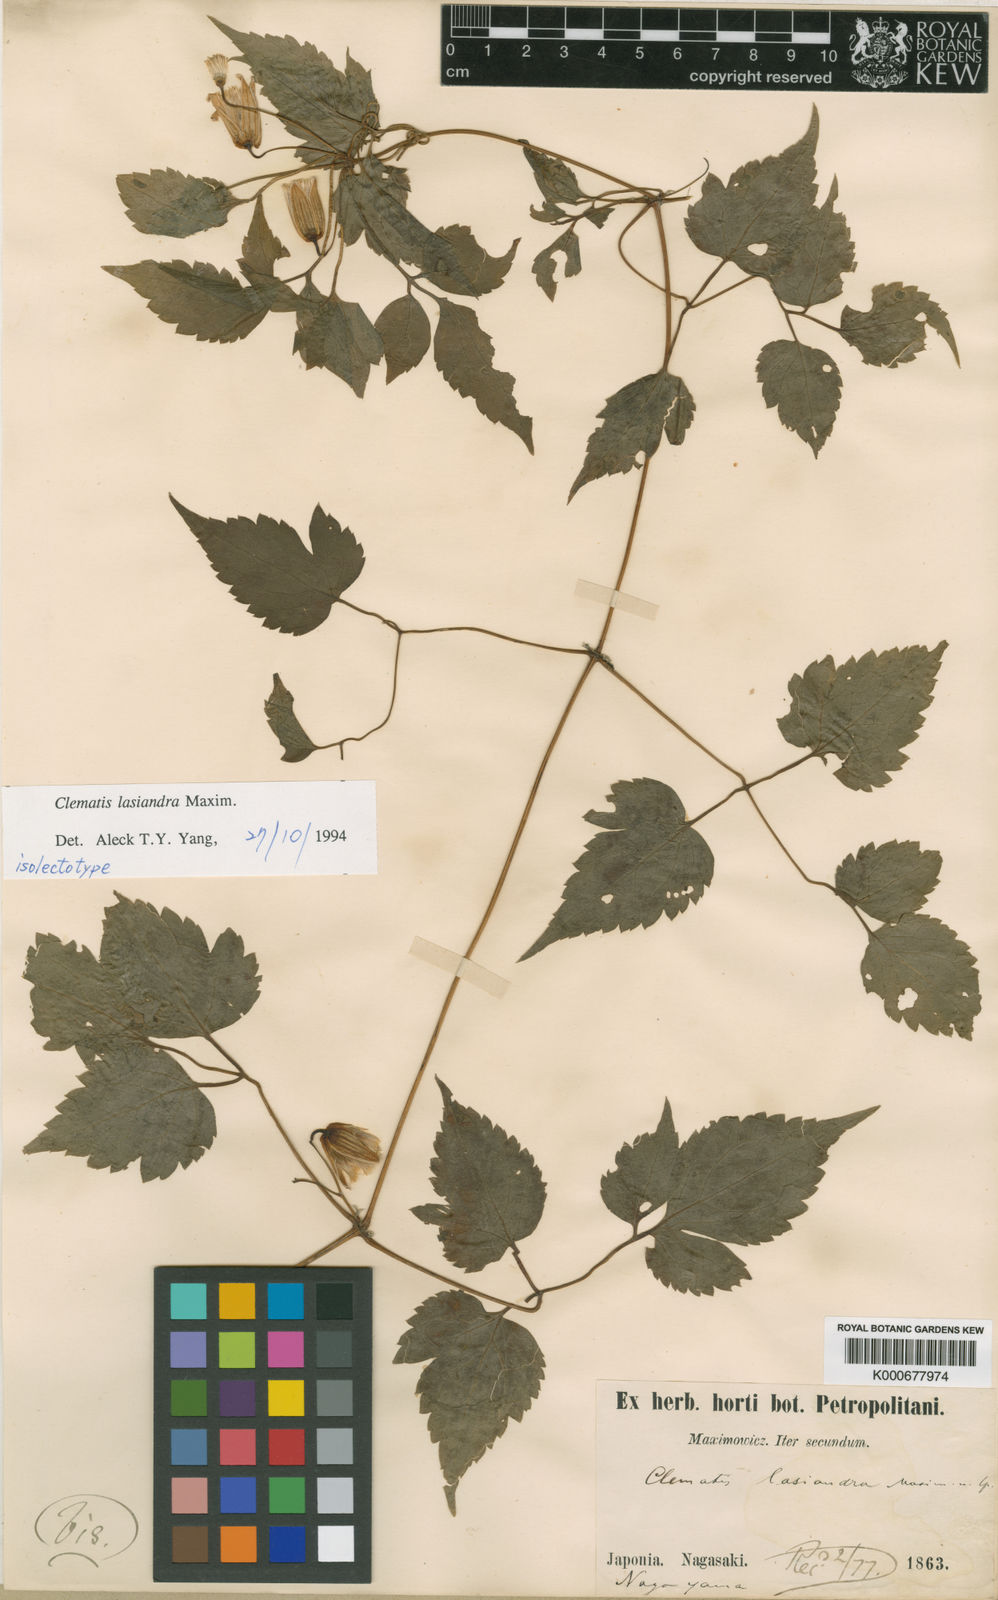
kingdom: Plantae
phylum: Tracheophyta
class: Magnoliopsida
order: Ranunculales
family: Ranunculaceae
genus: Clematis
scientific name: Clematis lasiandra
